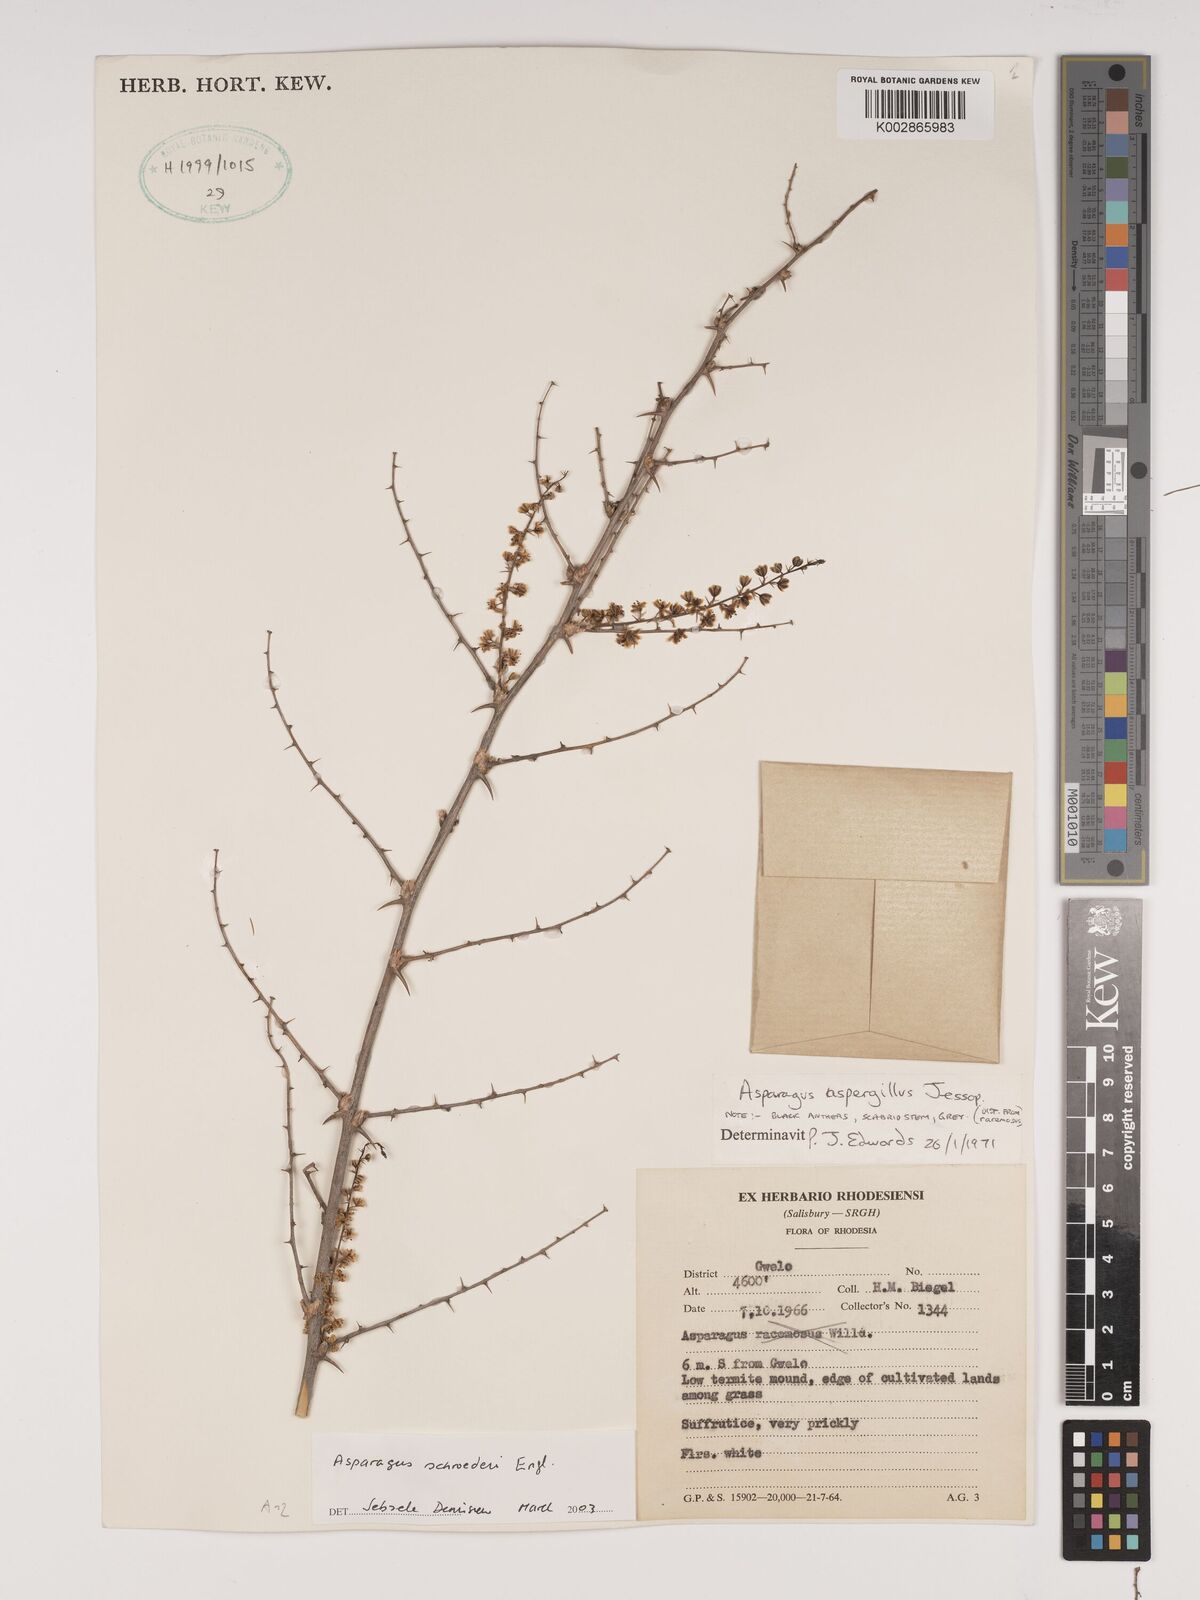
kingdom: Plantae
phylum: Tracheophyta
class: Liliopsida
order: Asparagales
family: Asparagaceae
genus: Asparagus
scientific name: Asparagus schroederi
